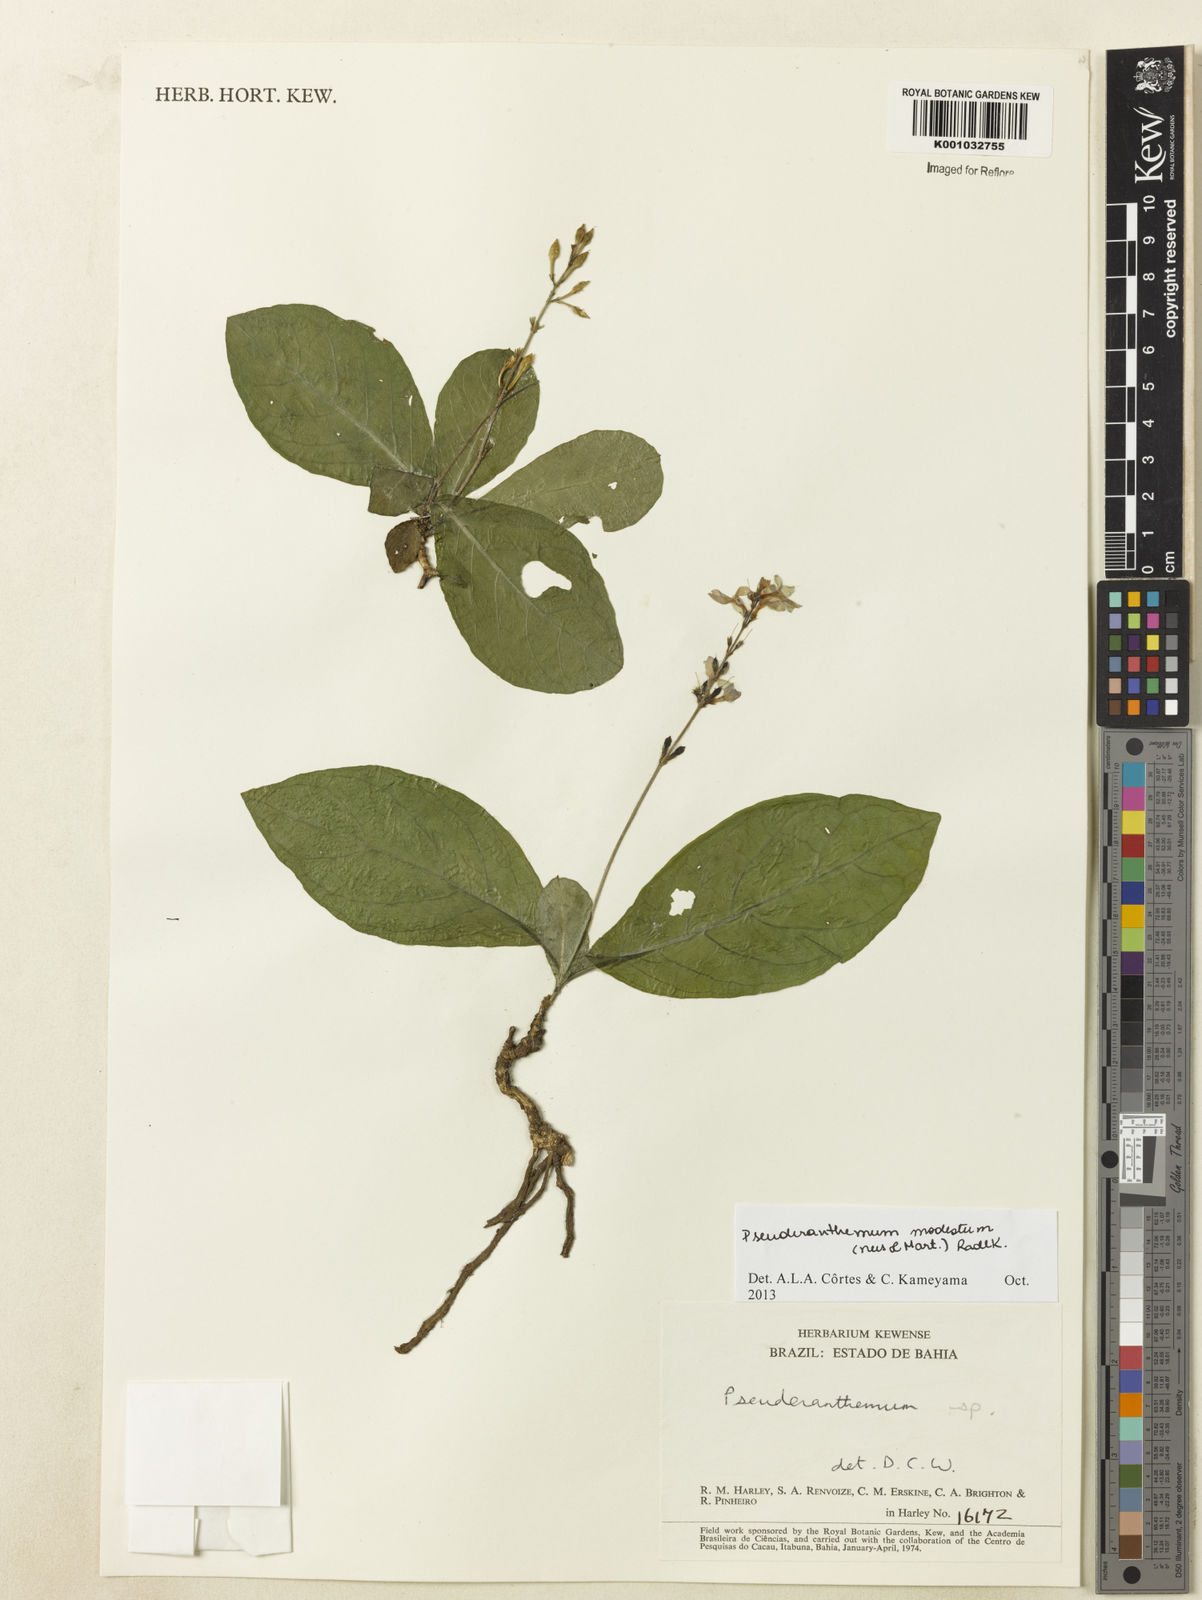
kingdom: Plantae
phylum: Tracheophyta
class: Magnoliopsida
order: Lamiales
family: Acanthaceae
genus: Pseuderanthemum
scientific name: Pseuderanthemum modestum
